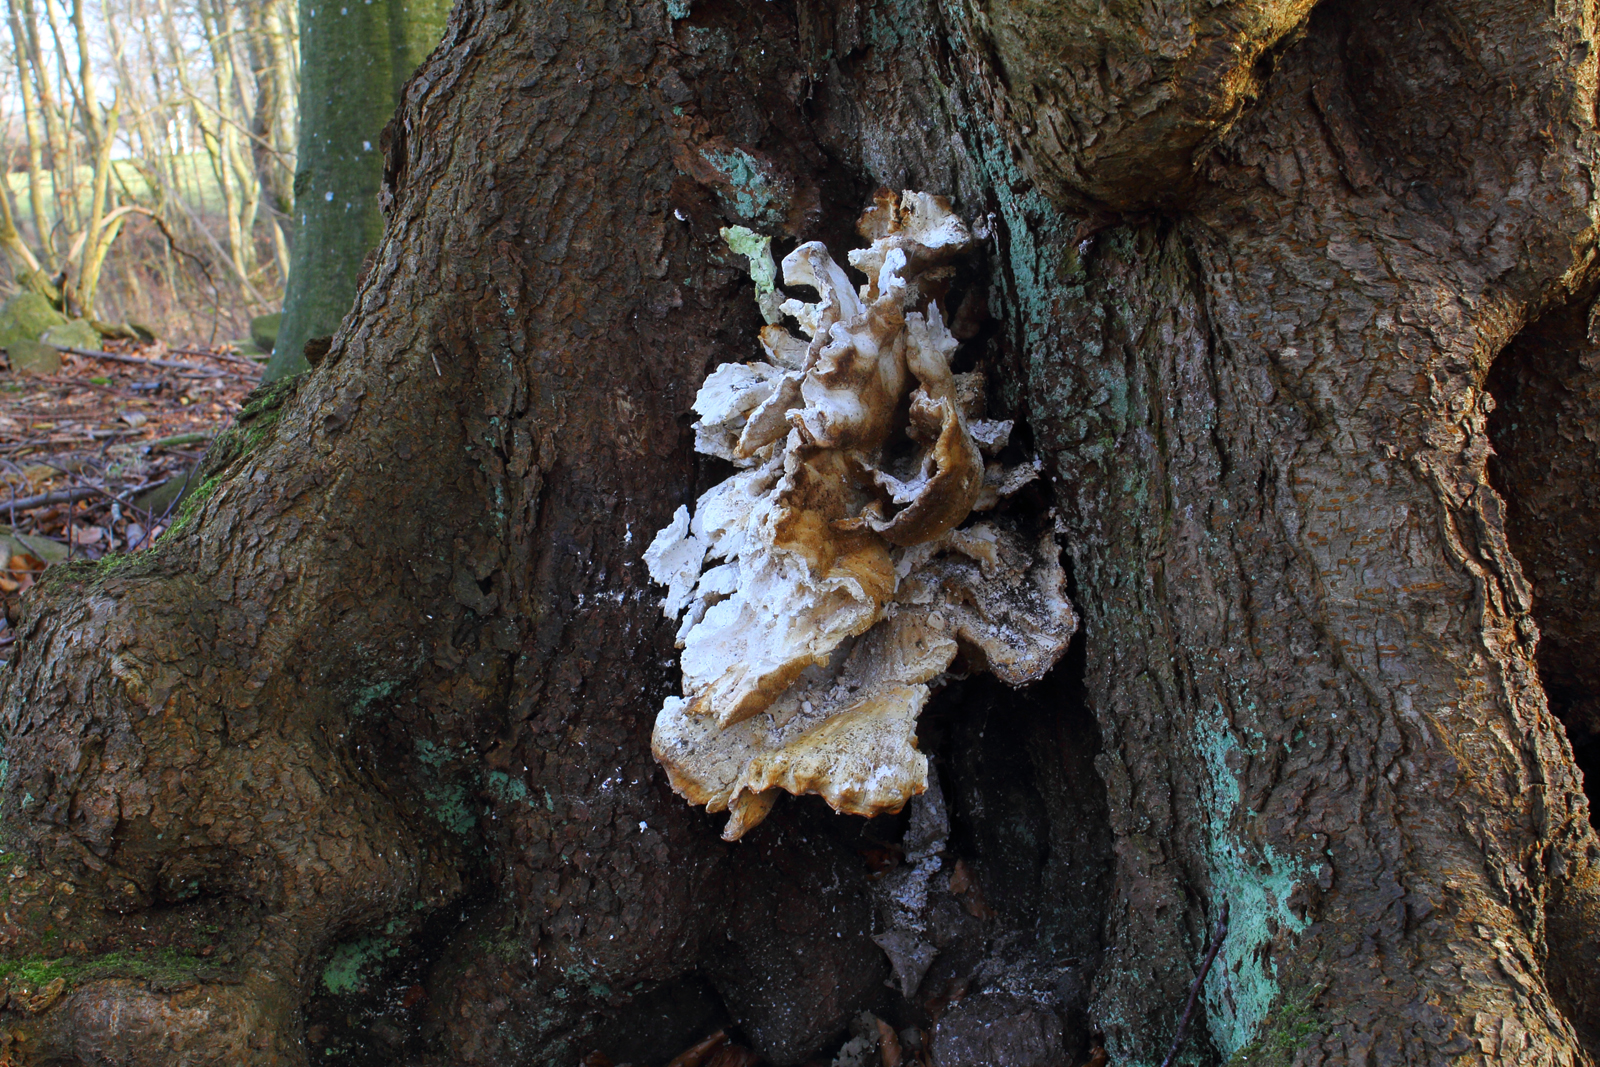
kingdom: Fungi
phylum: Basidiomycota
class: Agaricomycetes
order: Polyporales
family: Laetiporaceae
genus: Laetiporus
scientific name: Laetiporus sulphureus
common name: svovlporesvamp
